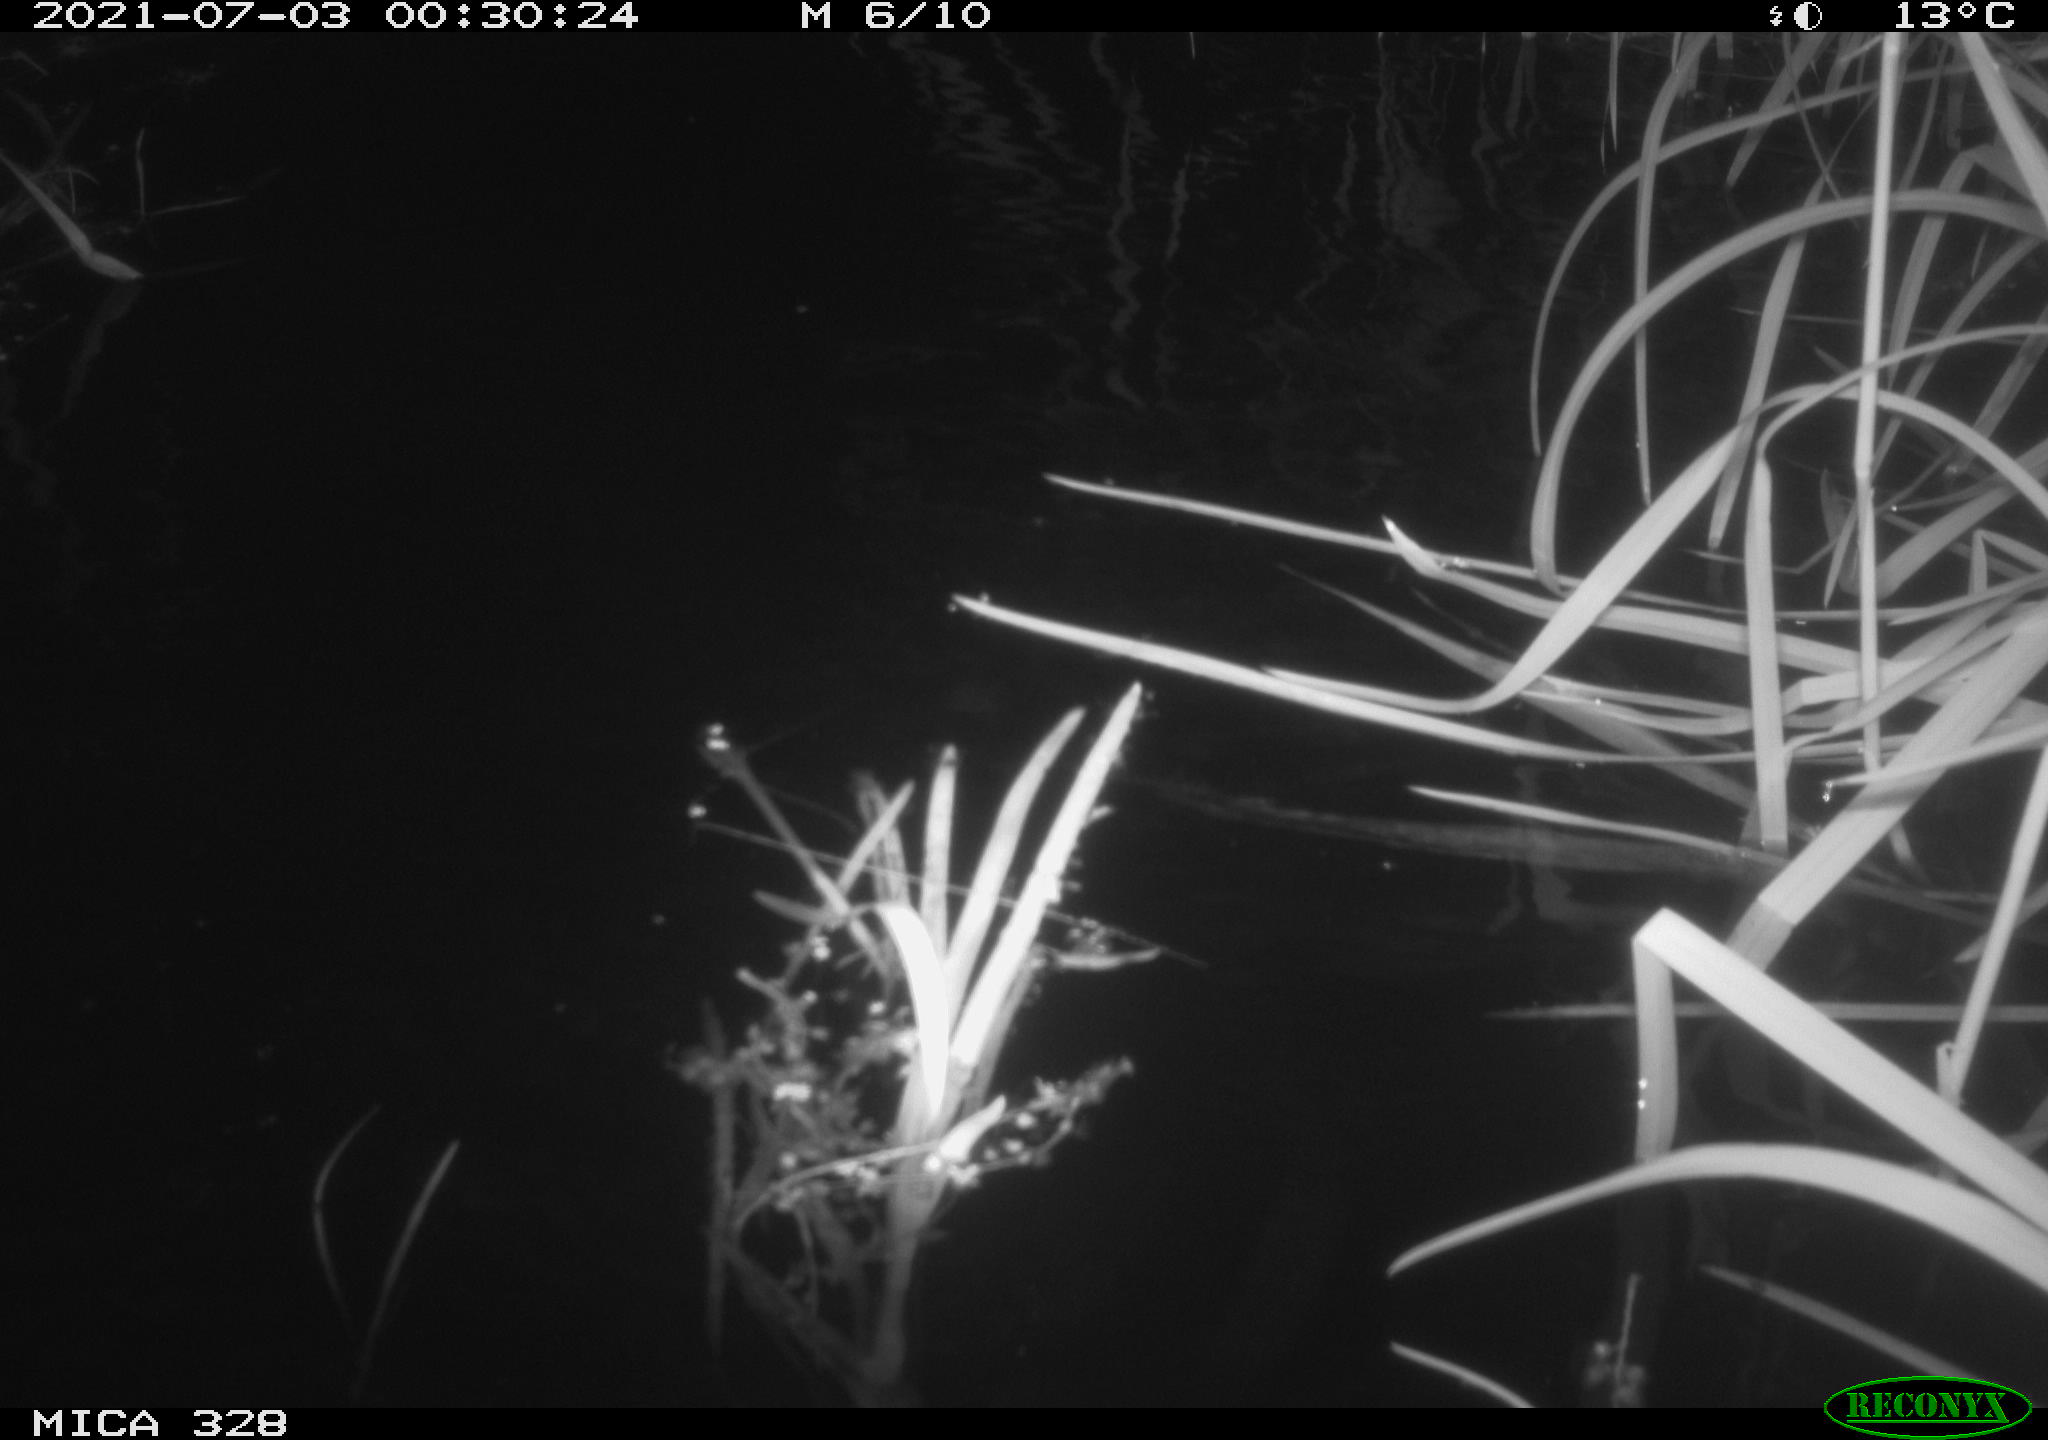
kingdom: Animalia
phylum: Chordata
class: Mammalia
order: Rodentia
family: Cricetidae
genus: Ondatra
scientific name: Ondatra zibethicus
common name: Muskrat
